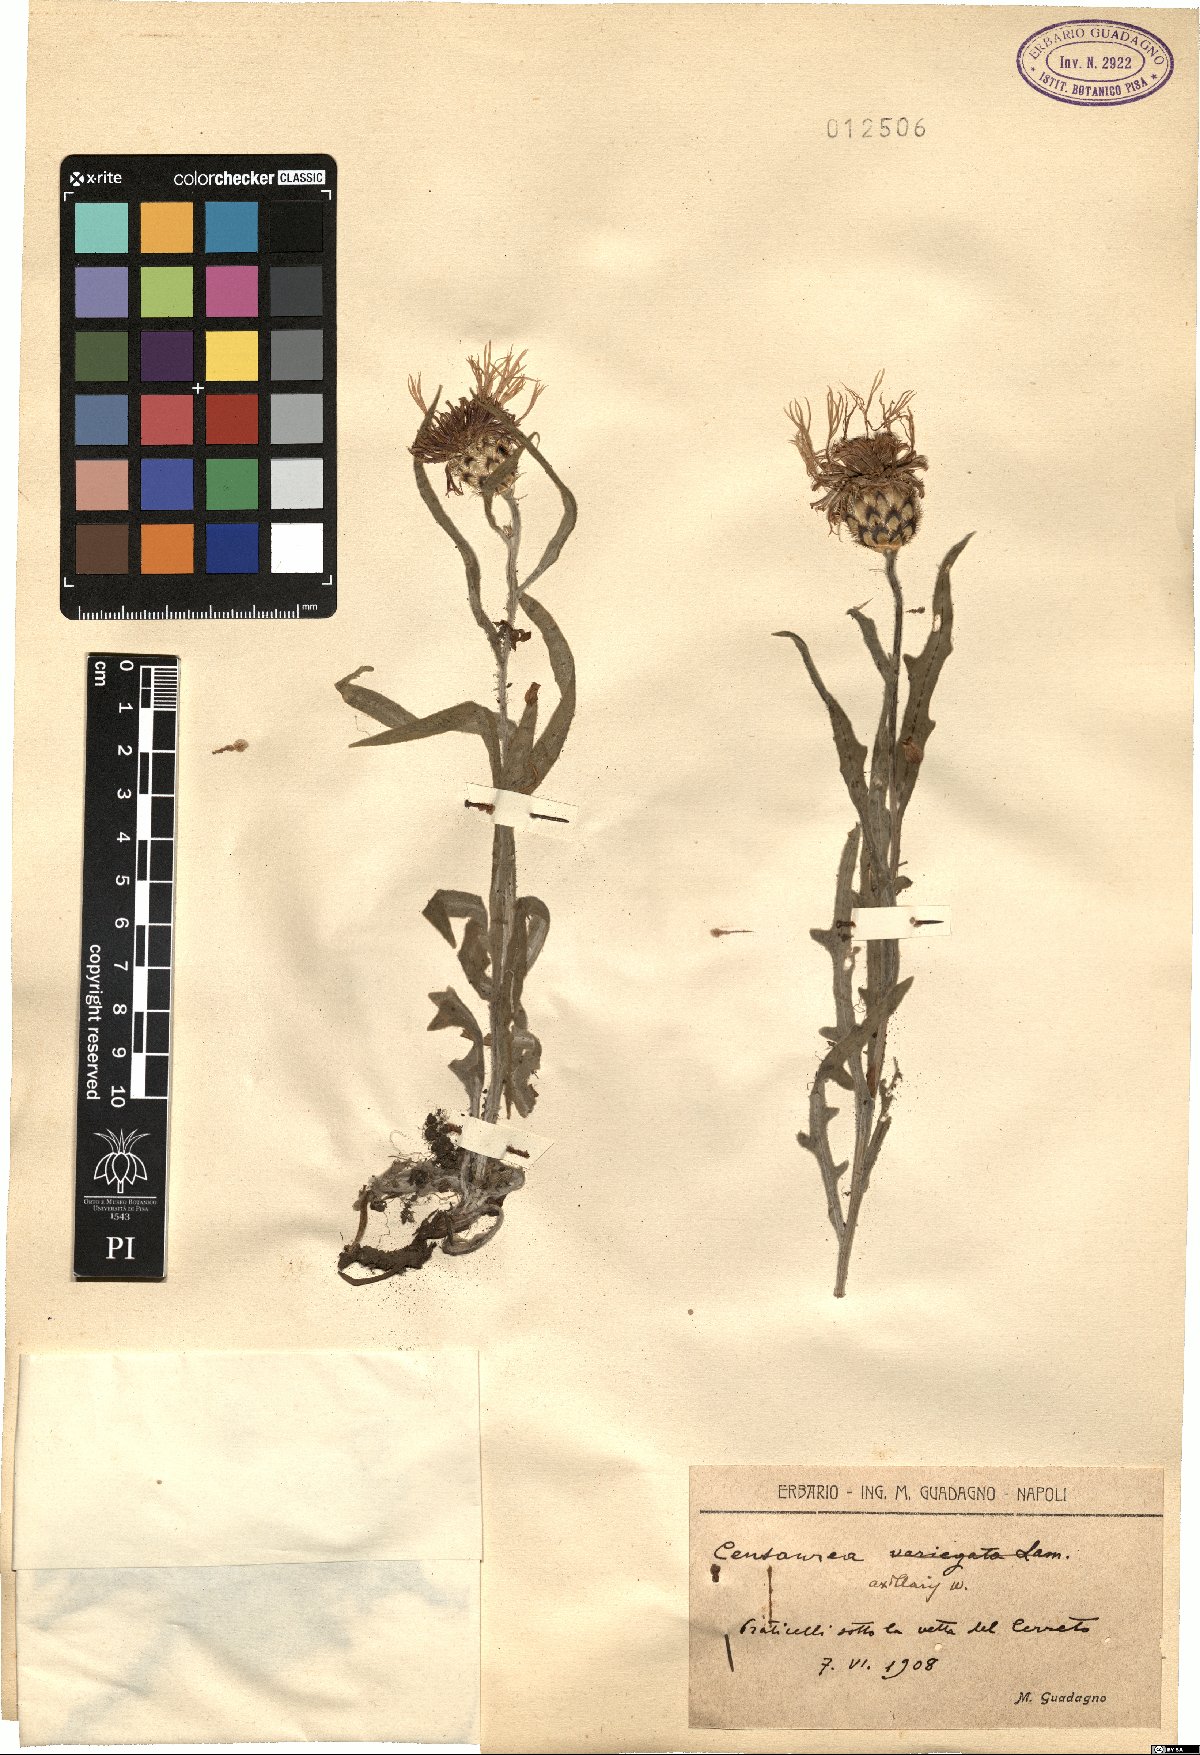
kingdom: Plantae
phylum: Tracheophyta
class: Magnoliopsida
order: Asterales
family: Asteraceae
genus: Centaurea
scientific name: Centaurea triumfettii
